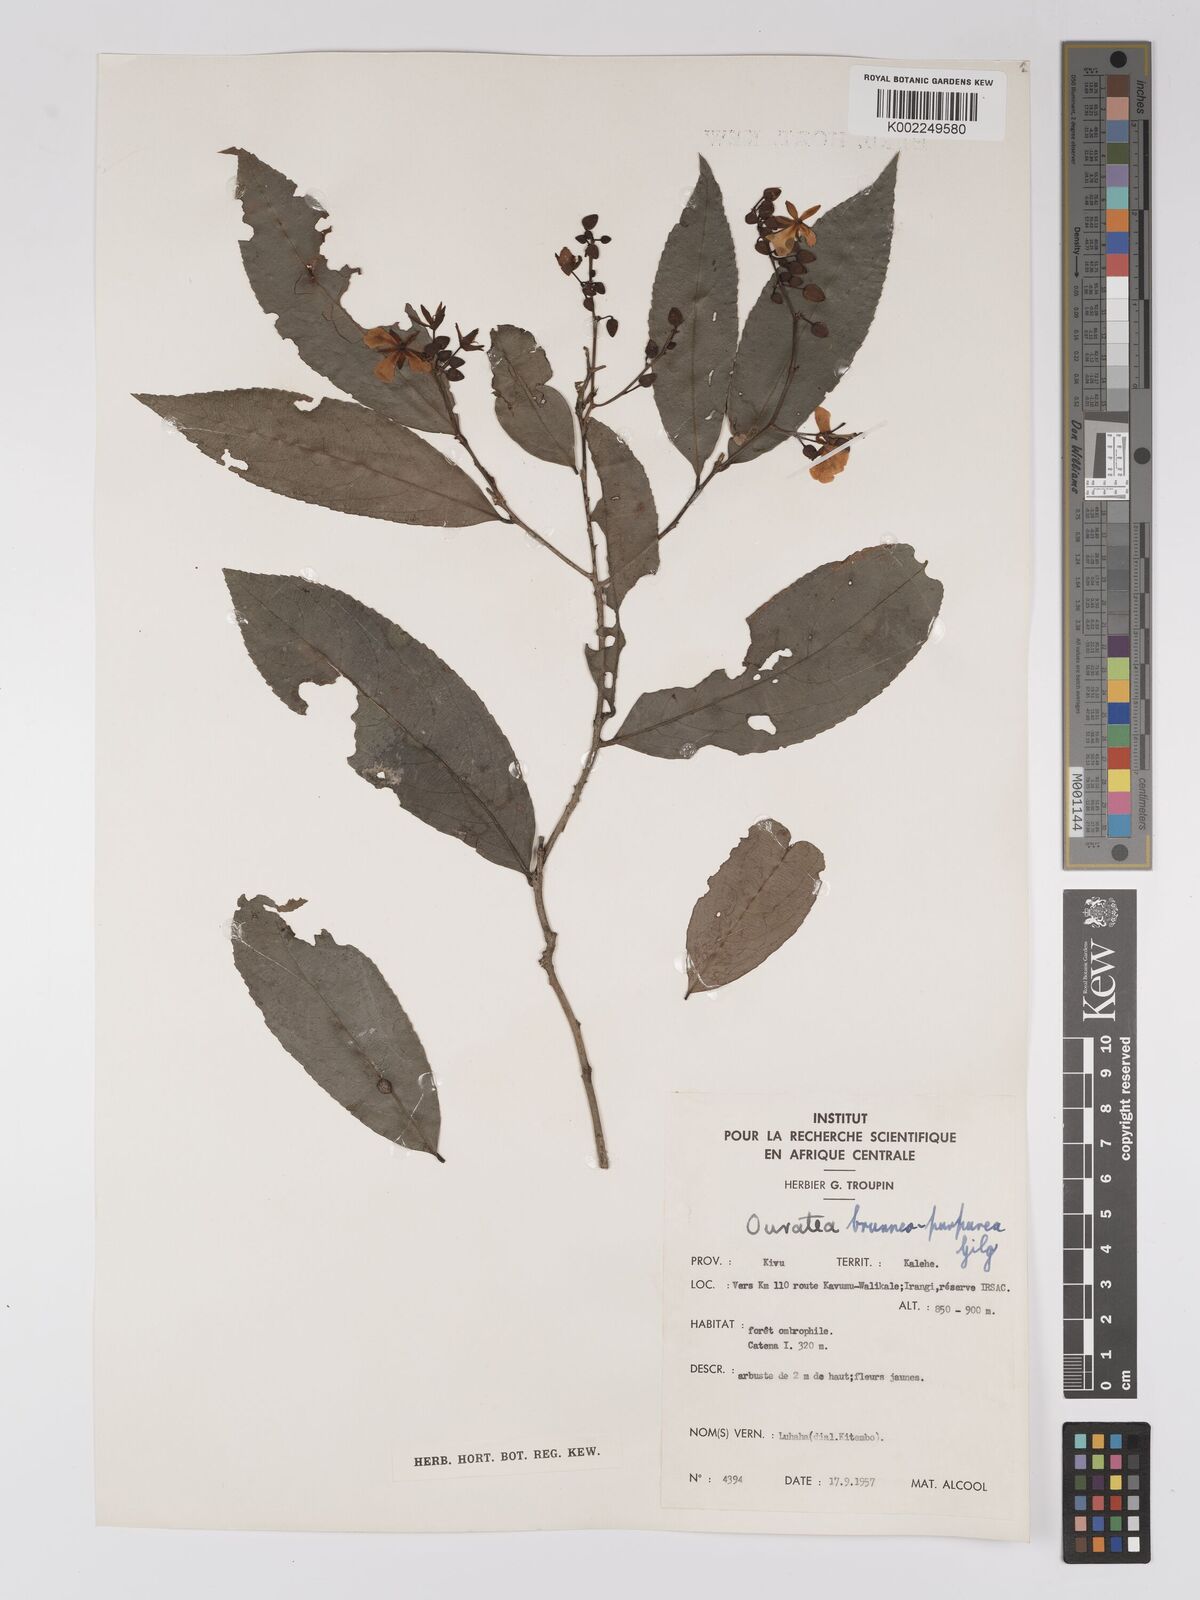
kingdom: Plantae
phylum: Tracheophyta
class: Magnoliopsida
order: Malpighiales
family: Ochnaceae
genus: Campylospermum
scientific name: Campylospermum reticulatum
